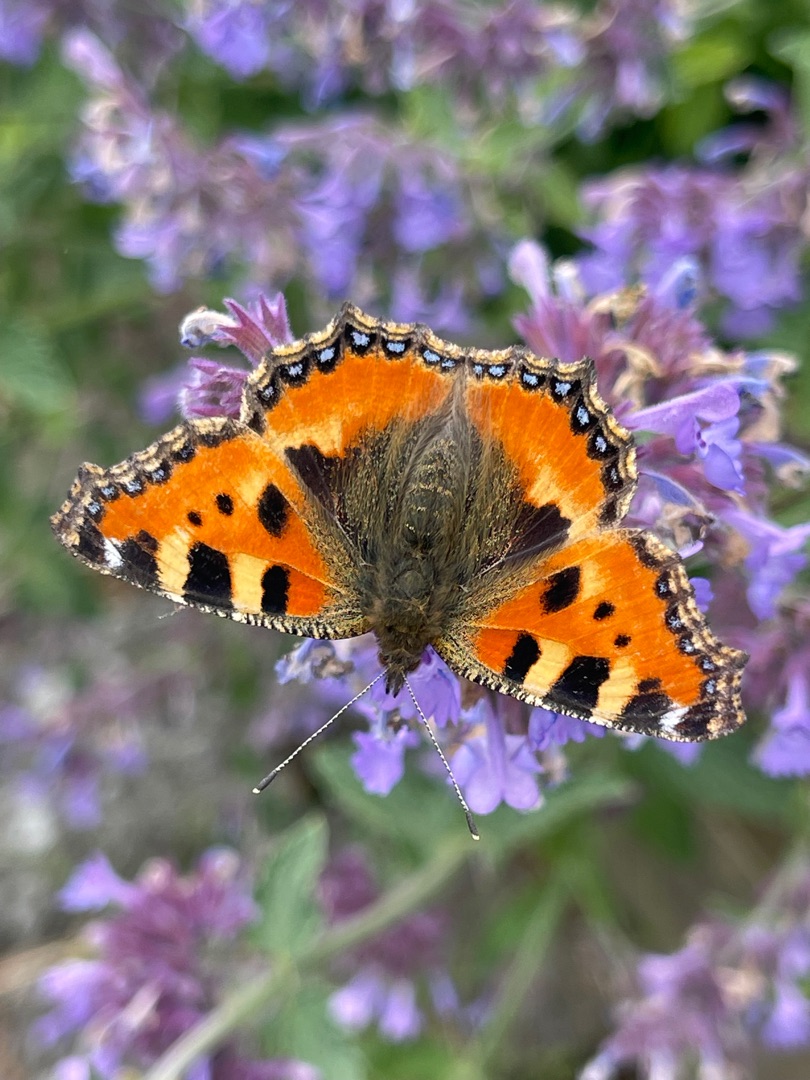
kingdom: Animalia
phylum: Arthropoda
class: Insecta
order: Lepidoptera
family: Nymphalidae
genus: Aglais
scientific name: Aglais urticae
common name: Nældens takvinge
